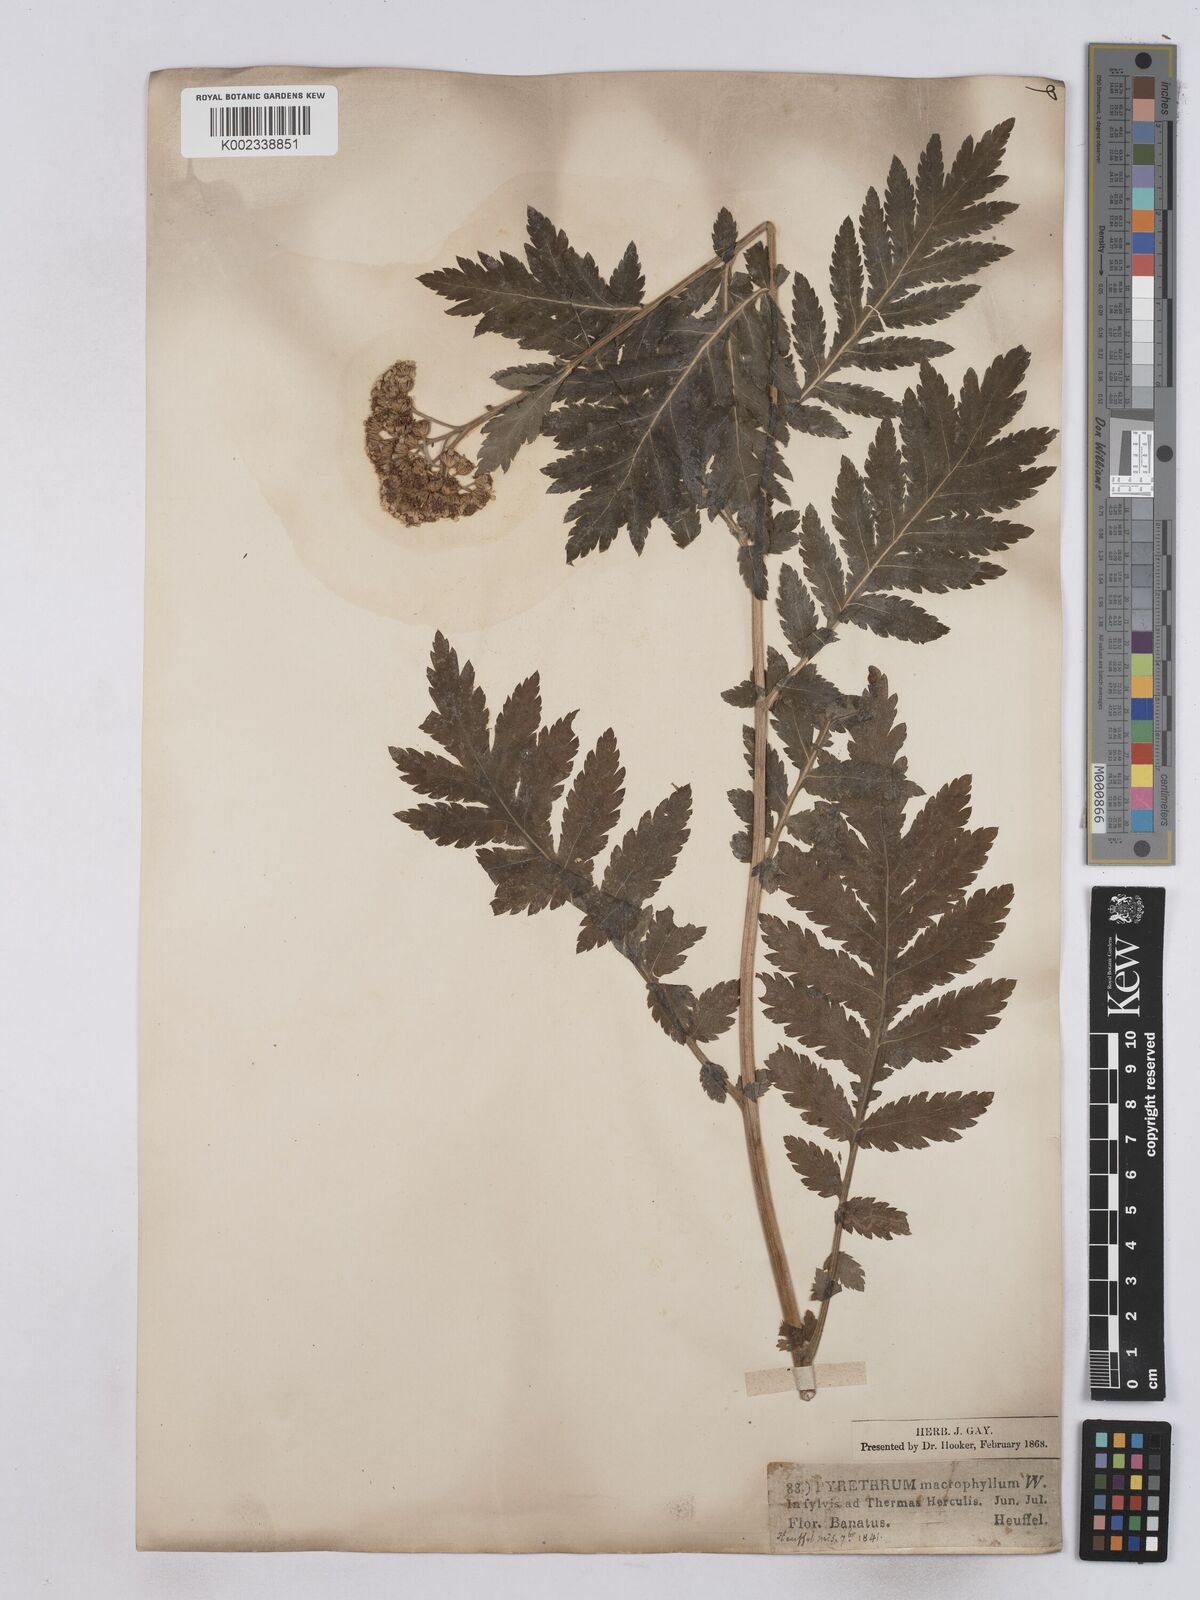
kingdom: Plantae
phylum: Tracheophyta
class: Magnoliopsida
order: Asterales
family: Asteraceae
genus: Tanacetum
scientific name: Tanacetum macrophyllum
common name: Rayed tansy
